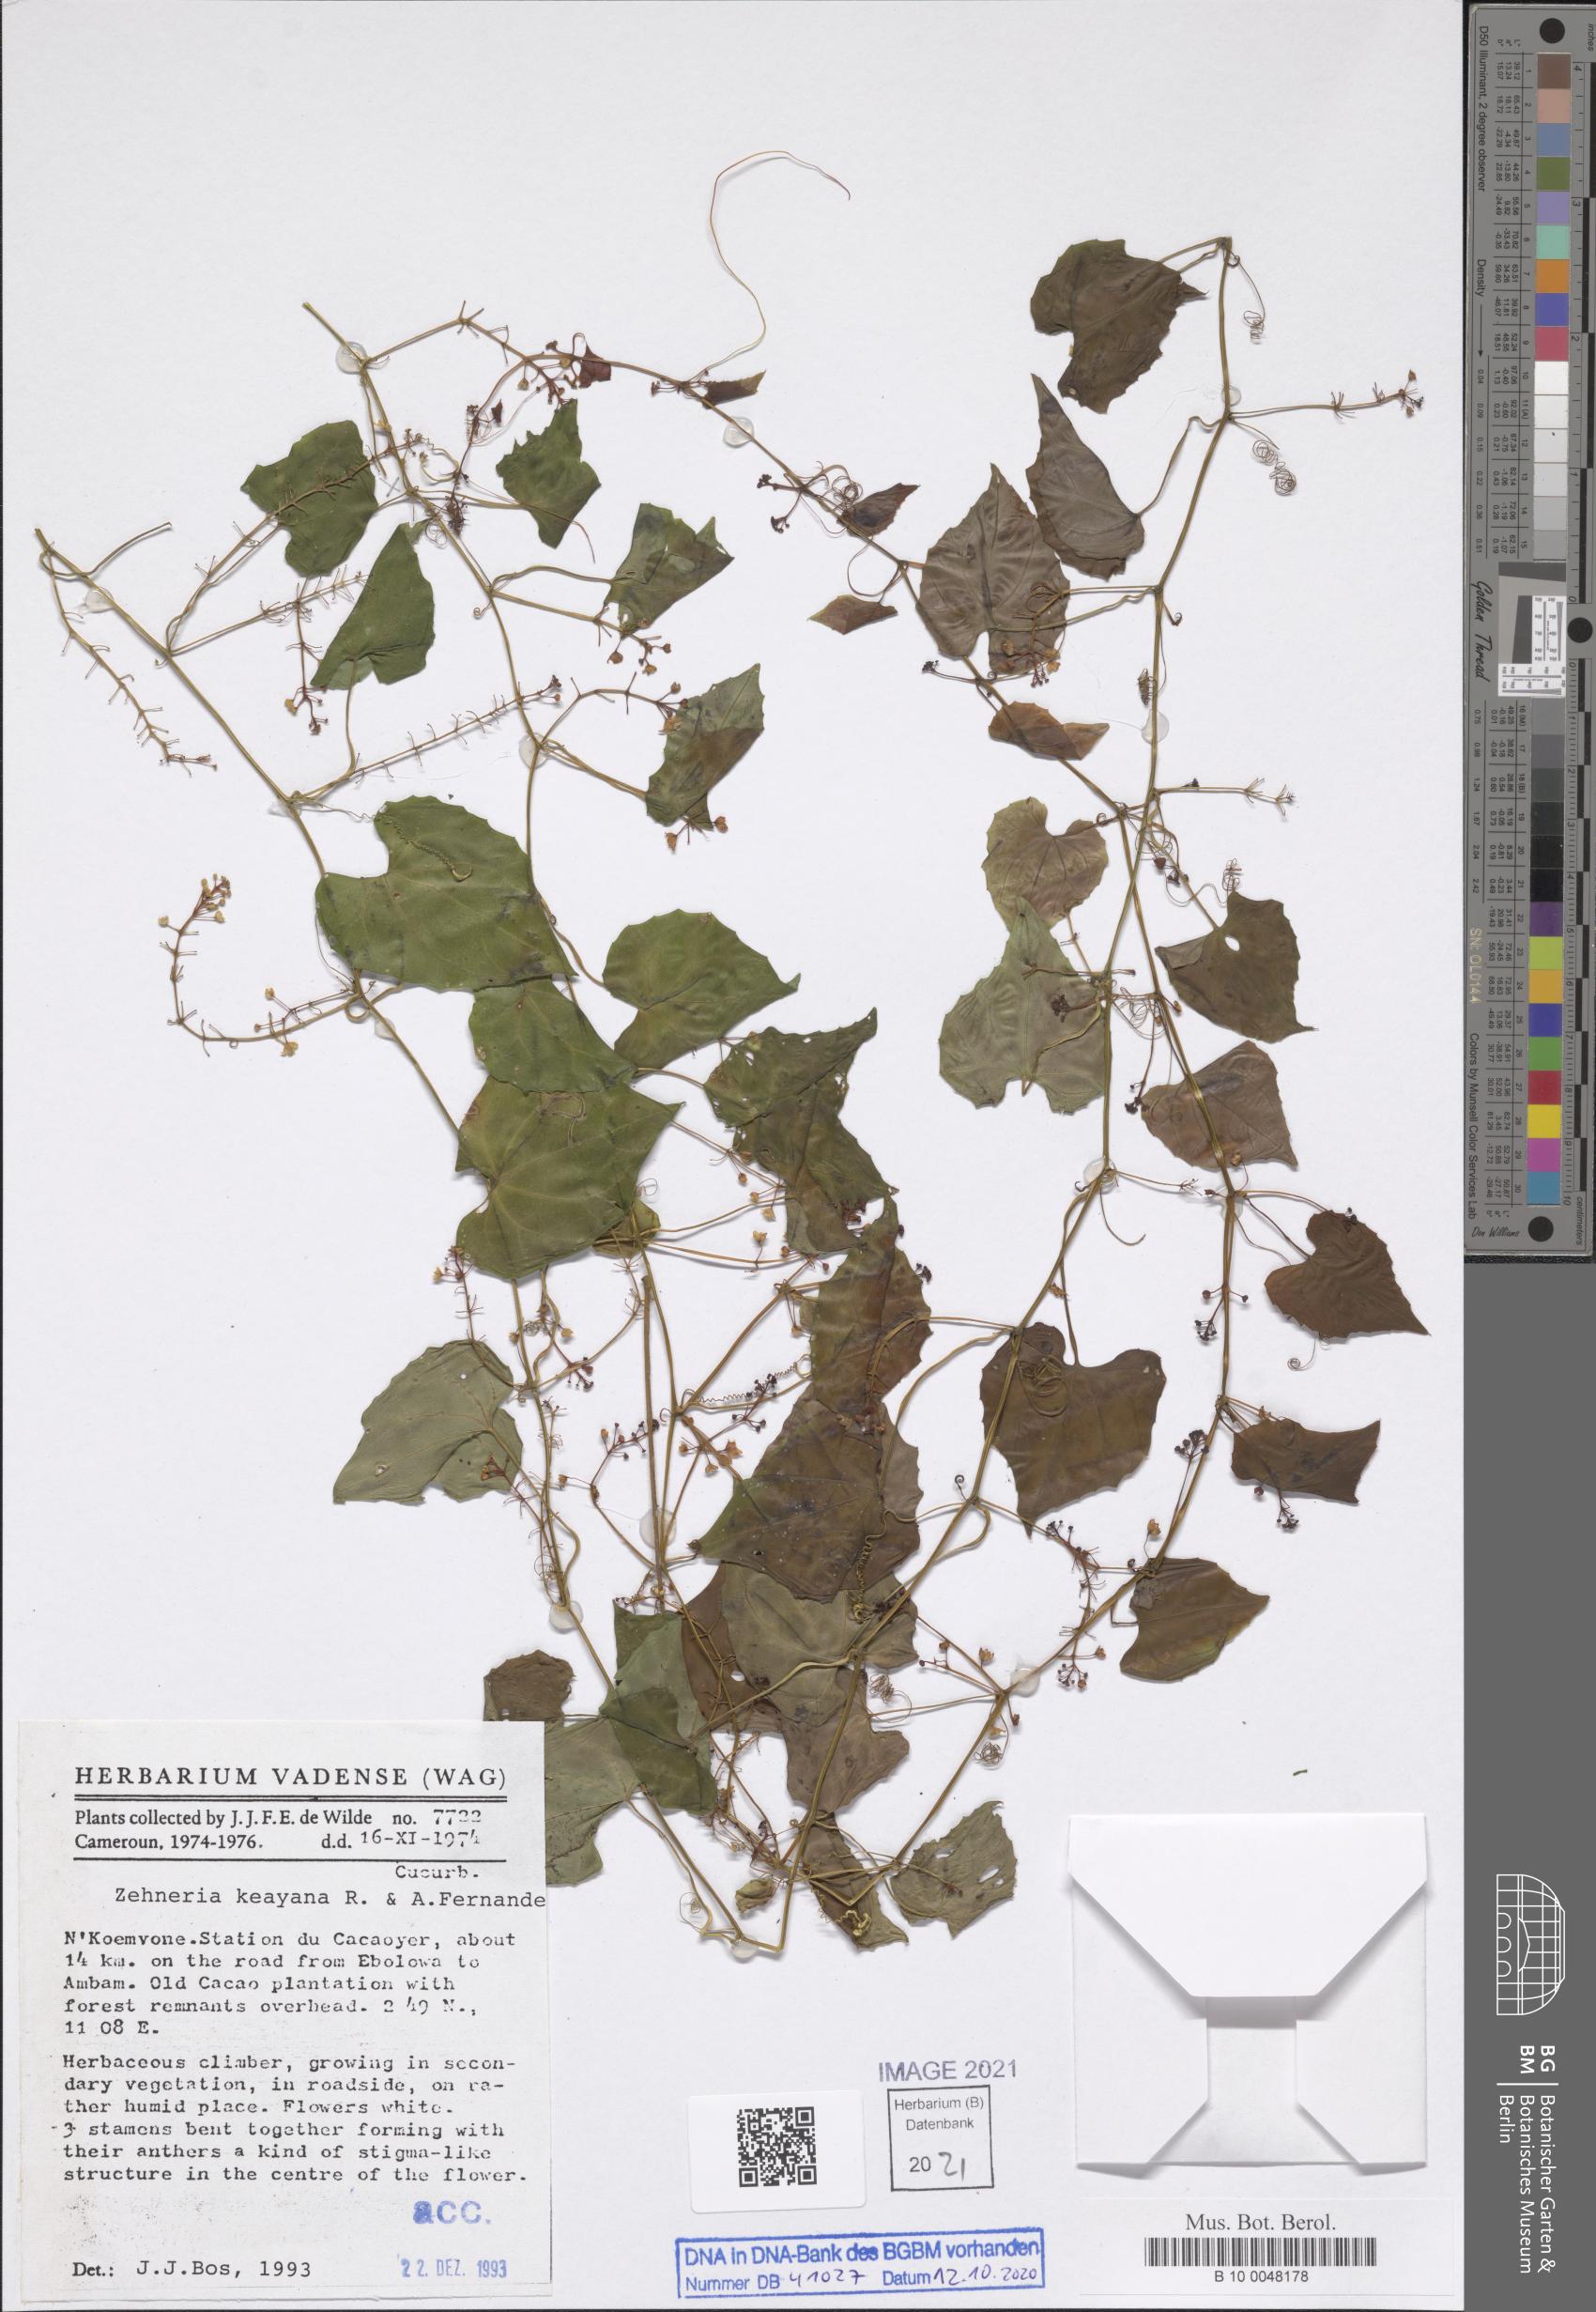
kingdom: Plantae
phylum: Tracheophyta
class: Magnoliopsida
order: Cucurbitales
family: Cucurbitaceae
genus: Zehneria
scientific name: Zehneria keayana
